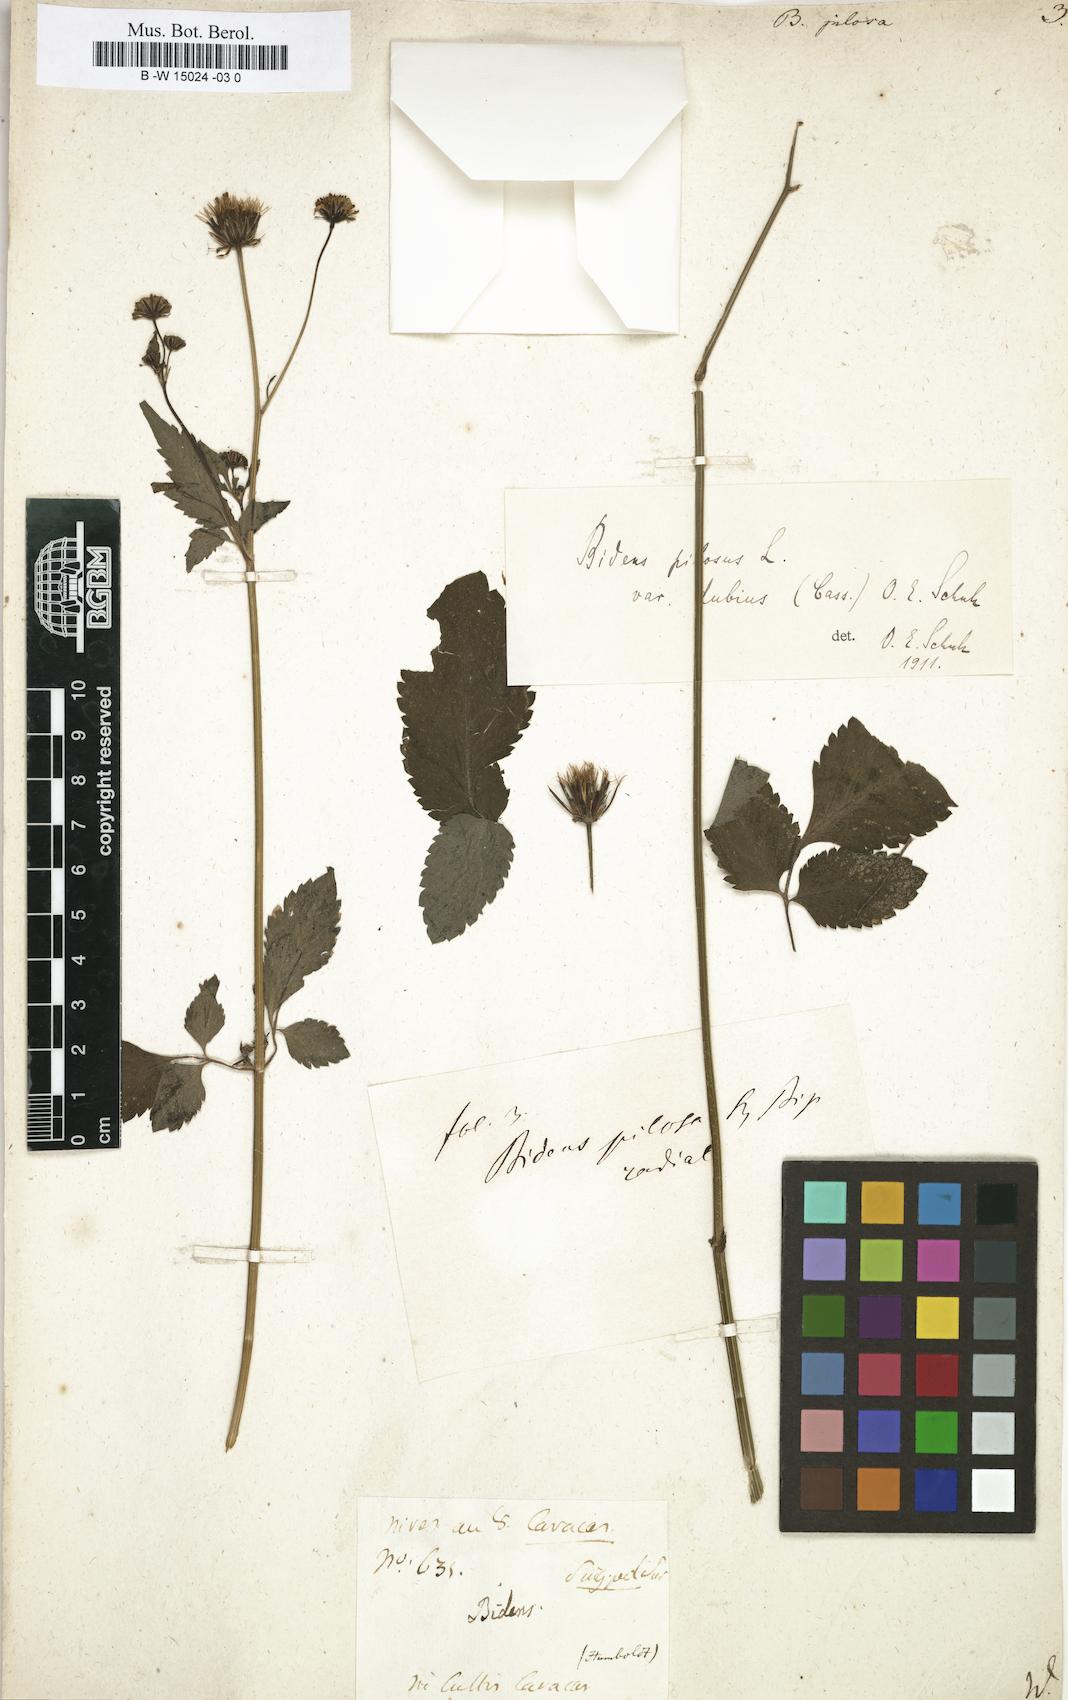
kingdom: Plantae
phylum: Tracheophyta
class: Magnoliopsida
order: Asterales
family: Asteraceae
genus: Bidens
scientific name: Bidens pilosa
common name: Black-jack
